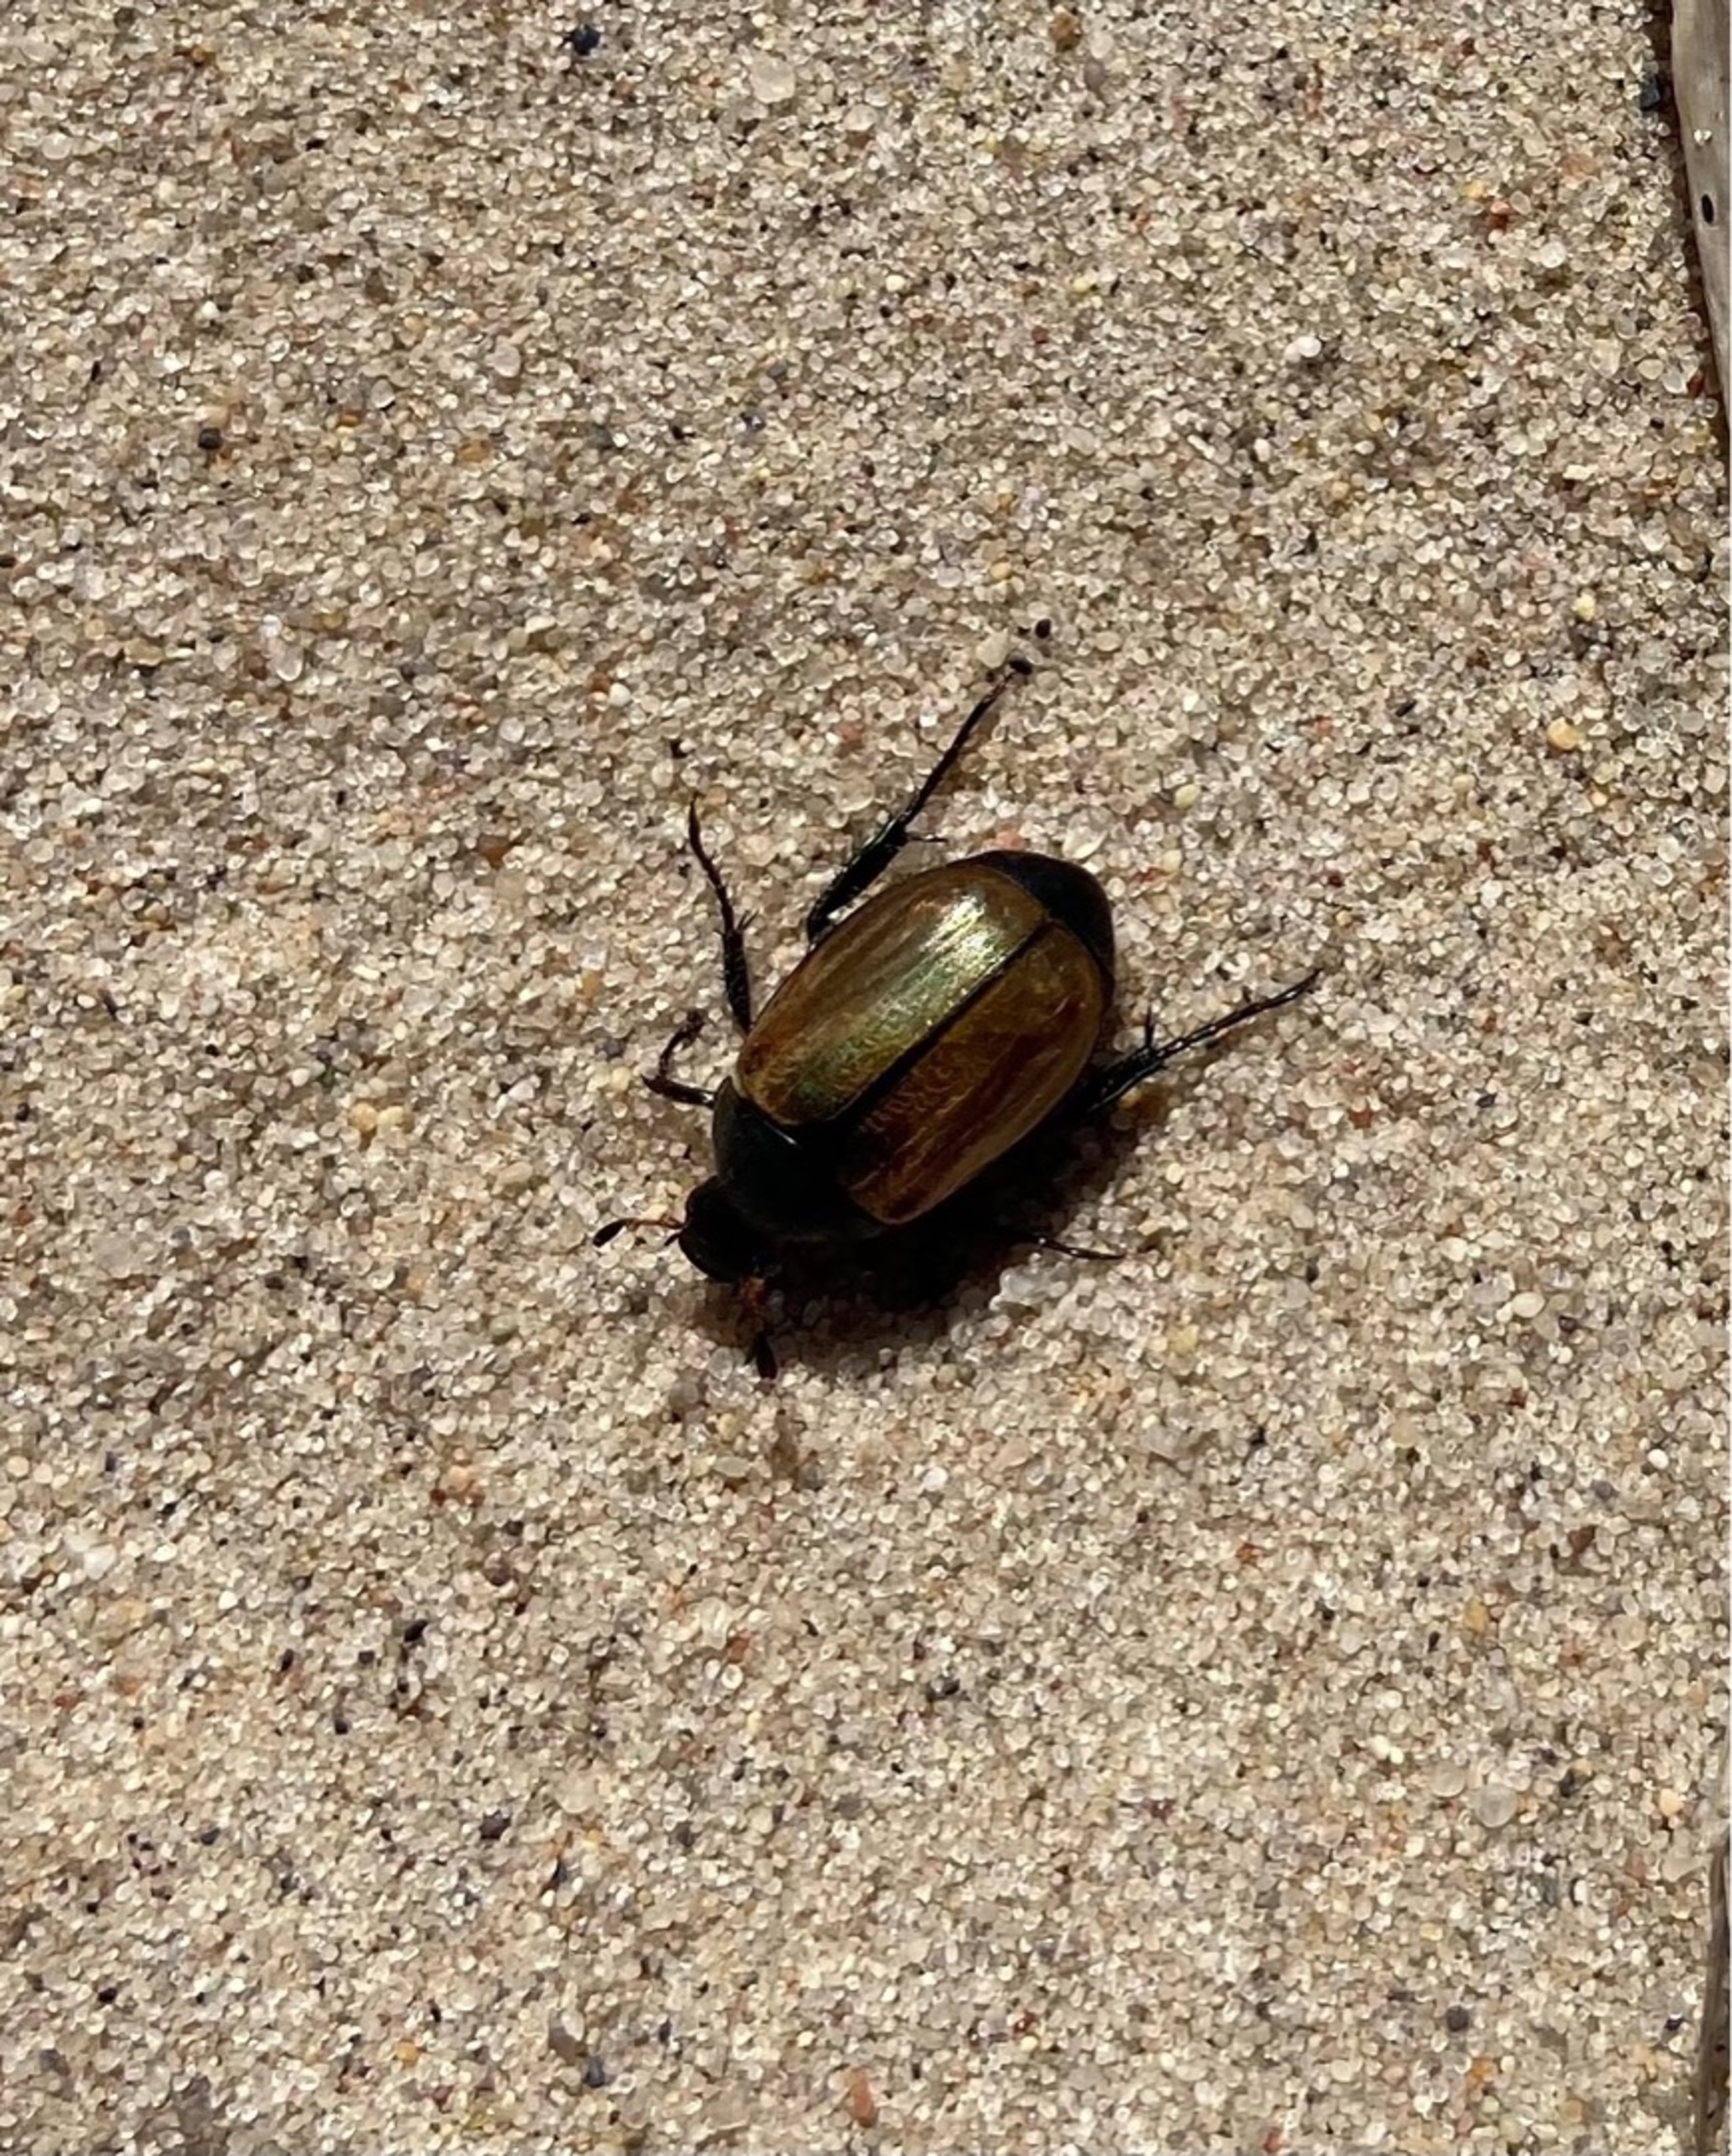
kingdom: Animalia
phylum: Arthropoda
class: Insecta
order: Coleoptera
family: Scarabaeidae
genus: Anomala
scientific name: Anomala dubia
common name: Klitoldenborre
